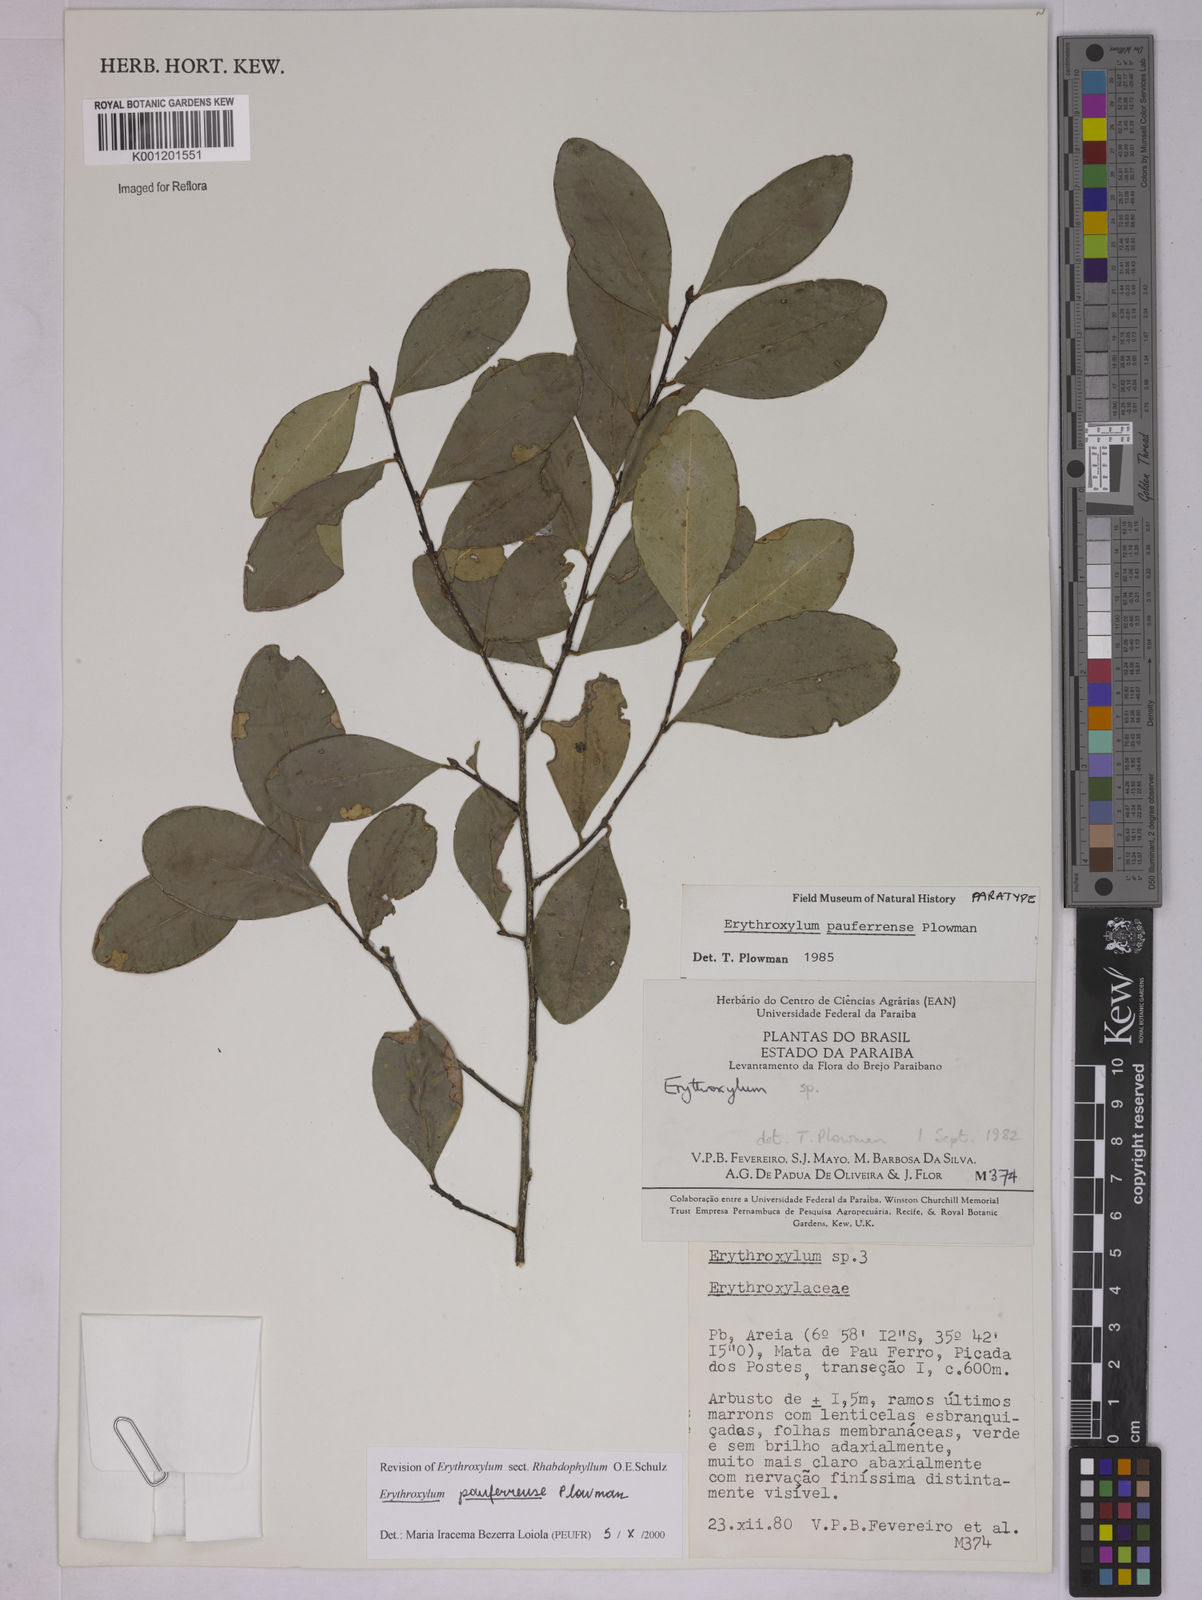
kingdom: Plantae
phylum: Tracheophyta
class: Magnoliopsida
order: Malpighiales
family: Erythroxylaceae
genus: Erythroxylum
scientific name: Erythroxylum pauferrense
